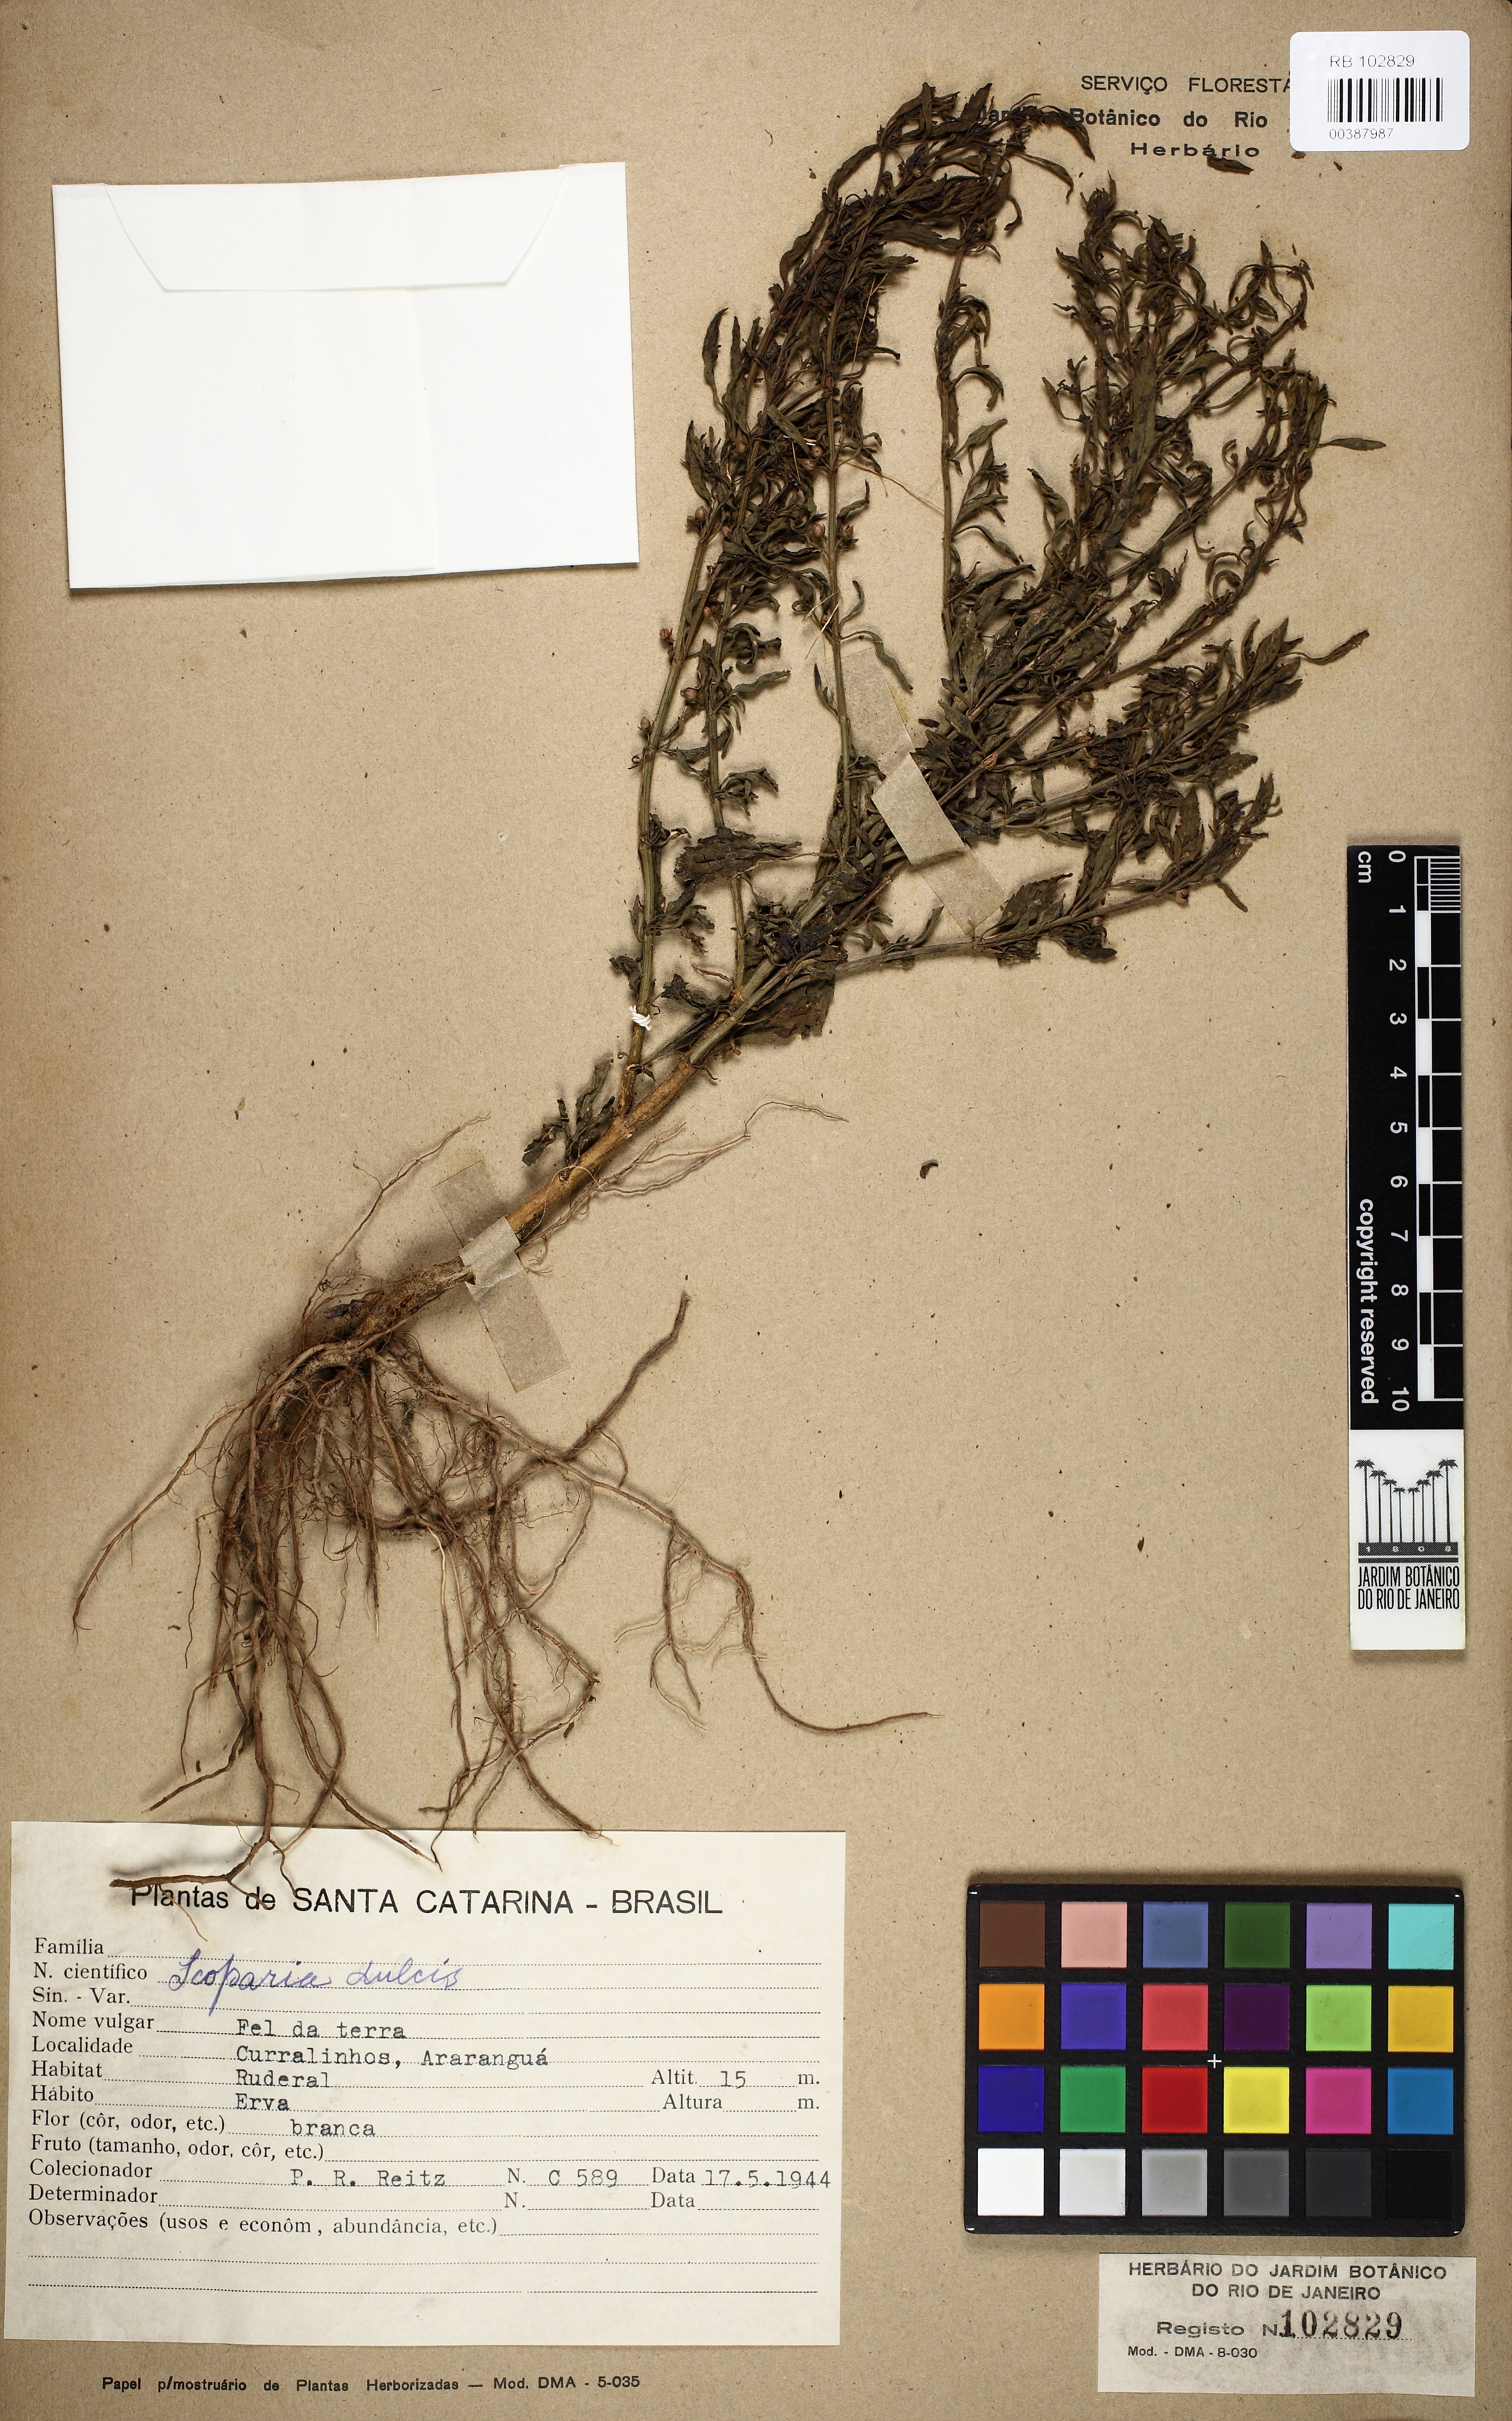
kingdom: Plantae
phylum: Tracheophyta
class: Magnoliopsida
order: Lamiales
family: Plantaginaceae
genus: Scoparia
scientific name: Scoparia dulcis
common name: Scoparia-weed
